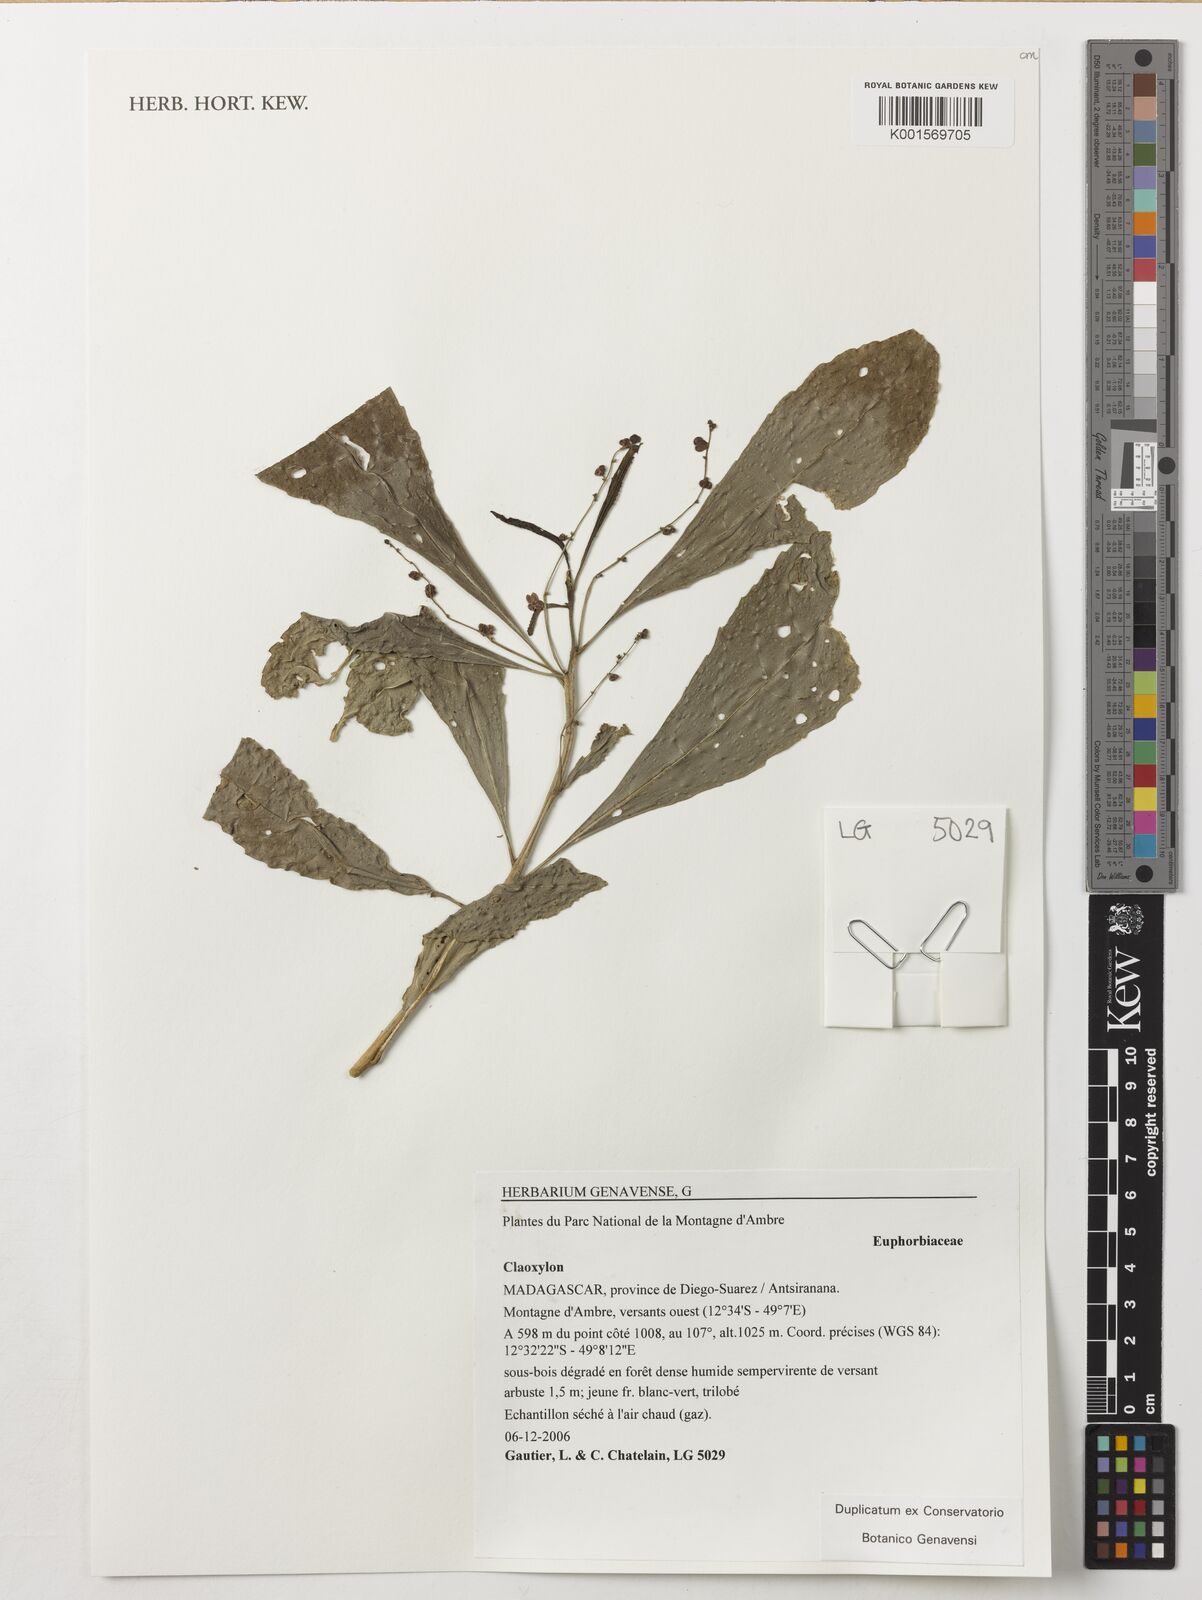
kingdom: Plantae
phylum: Tracheophyta
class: Magnoliopsida
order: Malpighiales
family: Euphorbiaceae
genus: Claoxylon
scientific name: Claoxylon
